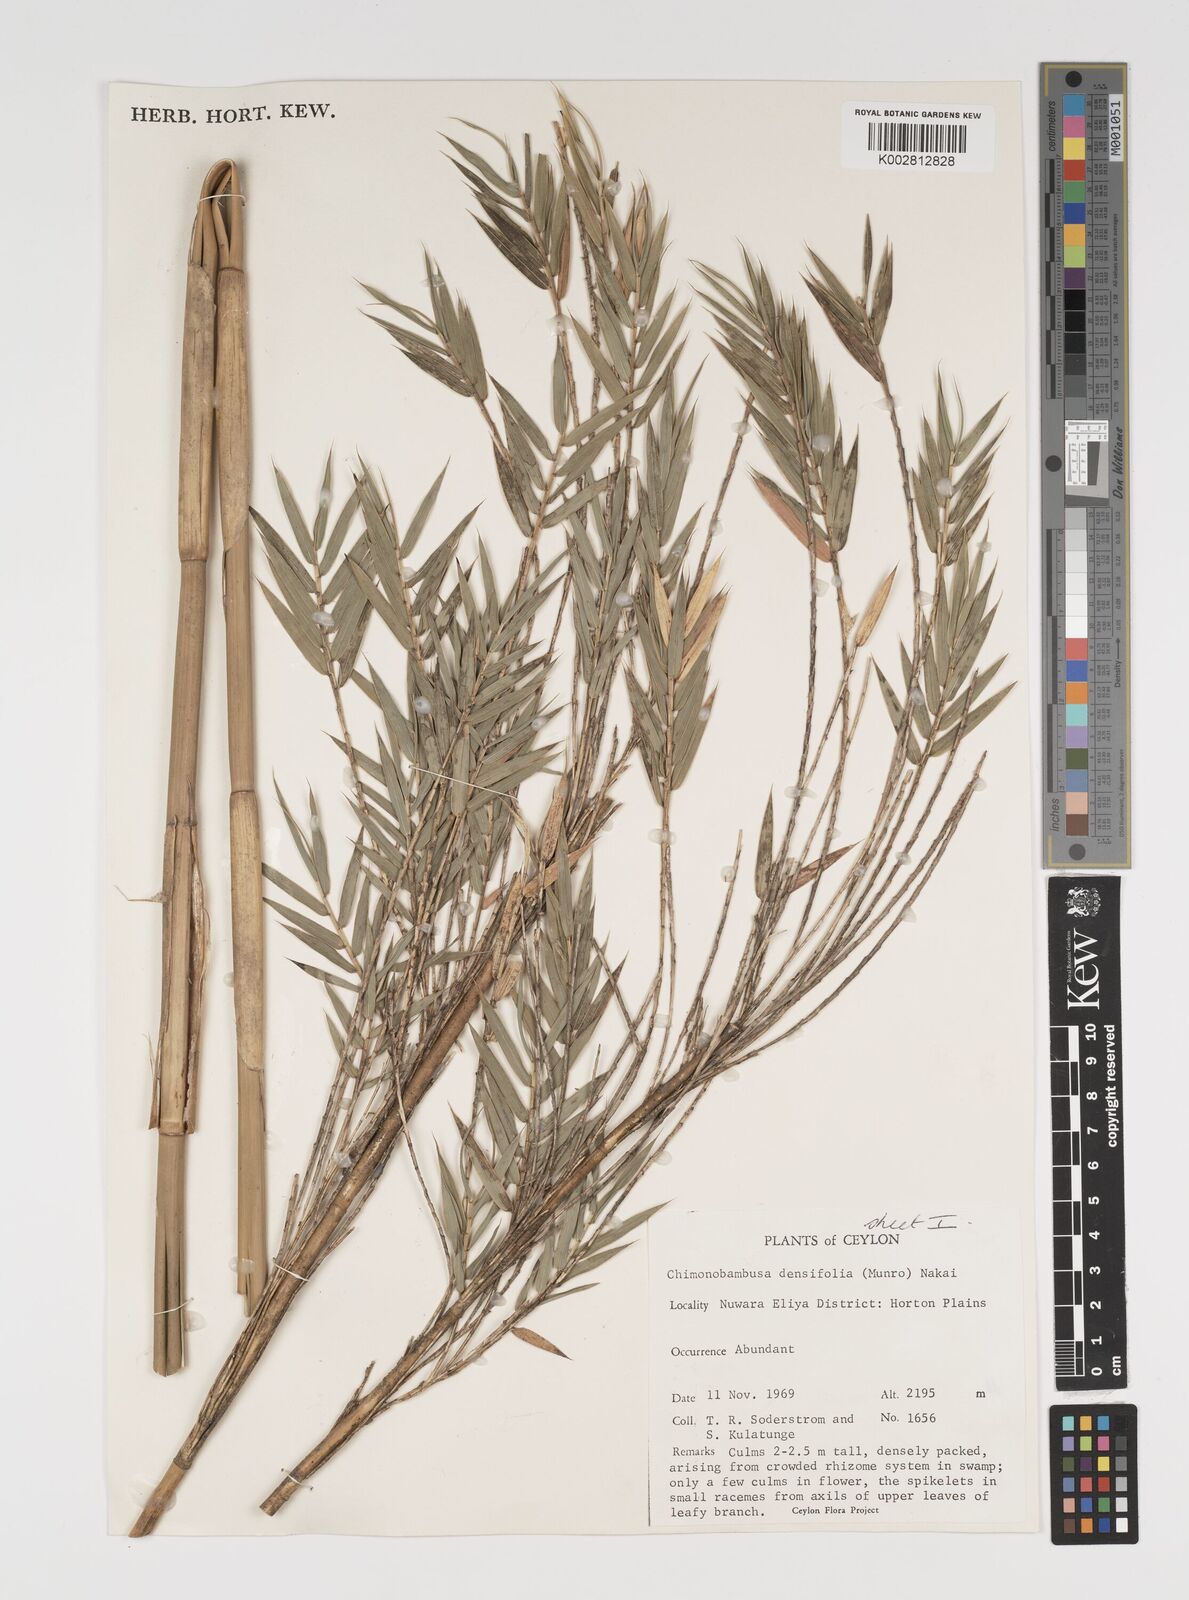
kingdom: Plantae
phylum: Tracheophyta
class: Liliopsida
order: Poales
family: Poaceae
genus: Brachystachyum
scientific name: Brachystachyum densiflorum
